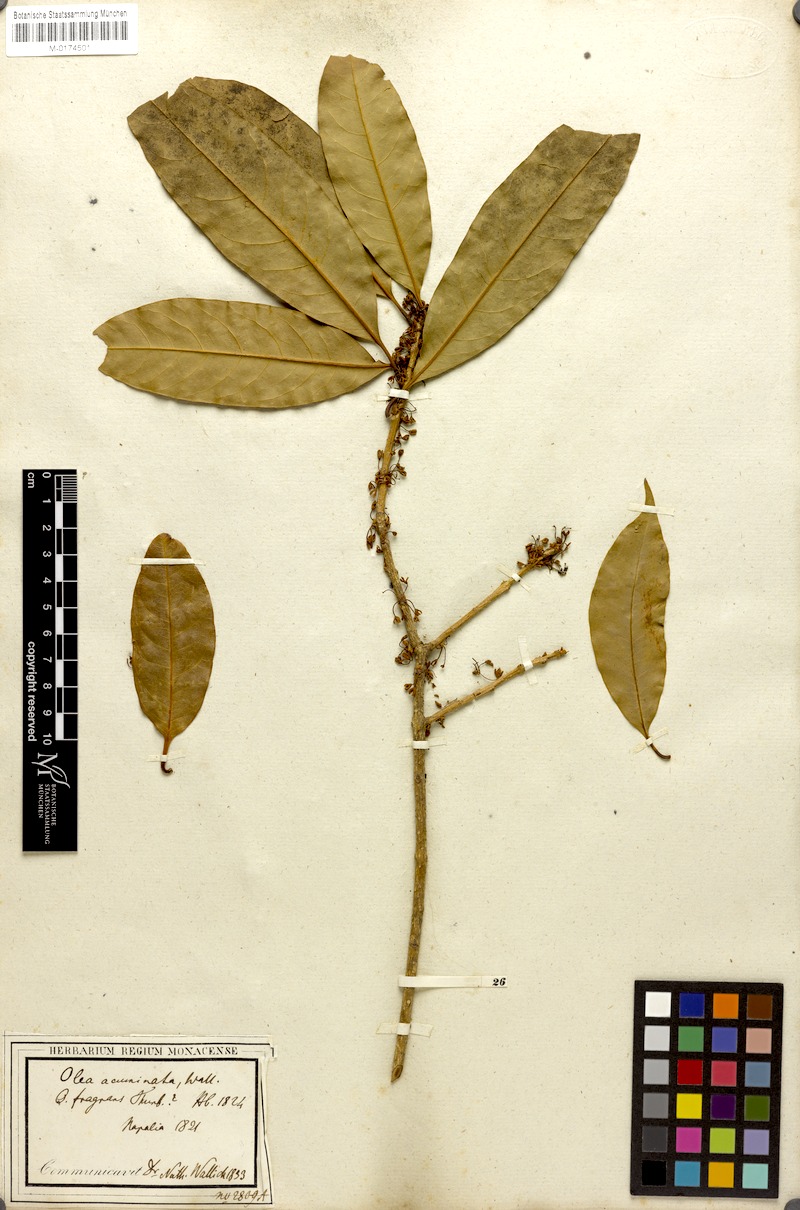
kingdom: Plantae
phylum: Tracheophyta
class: Magnoliopsida
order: Lamiales
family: Oleaceae
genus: Osmanthus
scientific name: Osmanthus fragrans
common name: Sweet osmanthus
